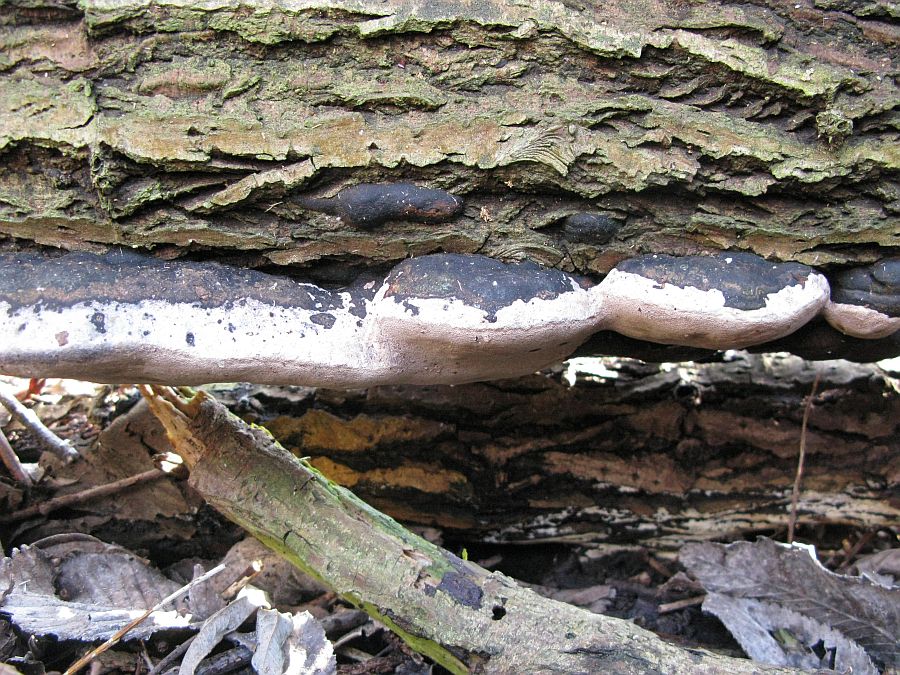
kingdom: Fungi
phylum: Basidiomycota
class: Agaricomycetes
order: Hymenochaetales
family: Hymenochaetaceae
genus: Phellinus
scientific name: Phellinus igniarius
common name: almindelig ildporesvamp
